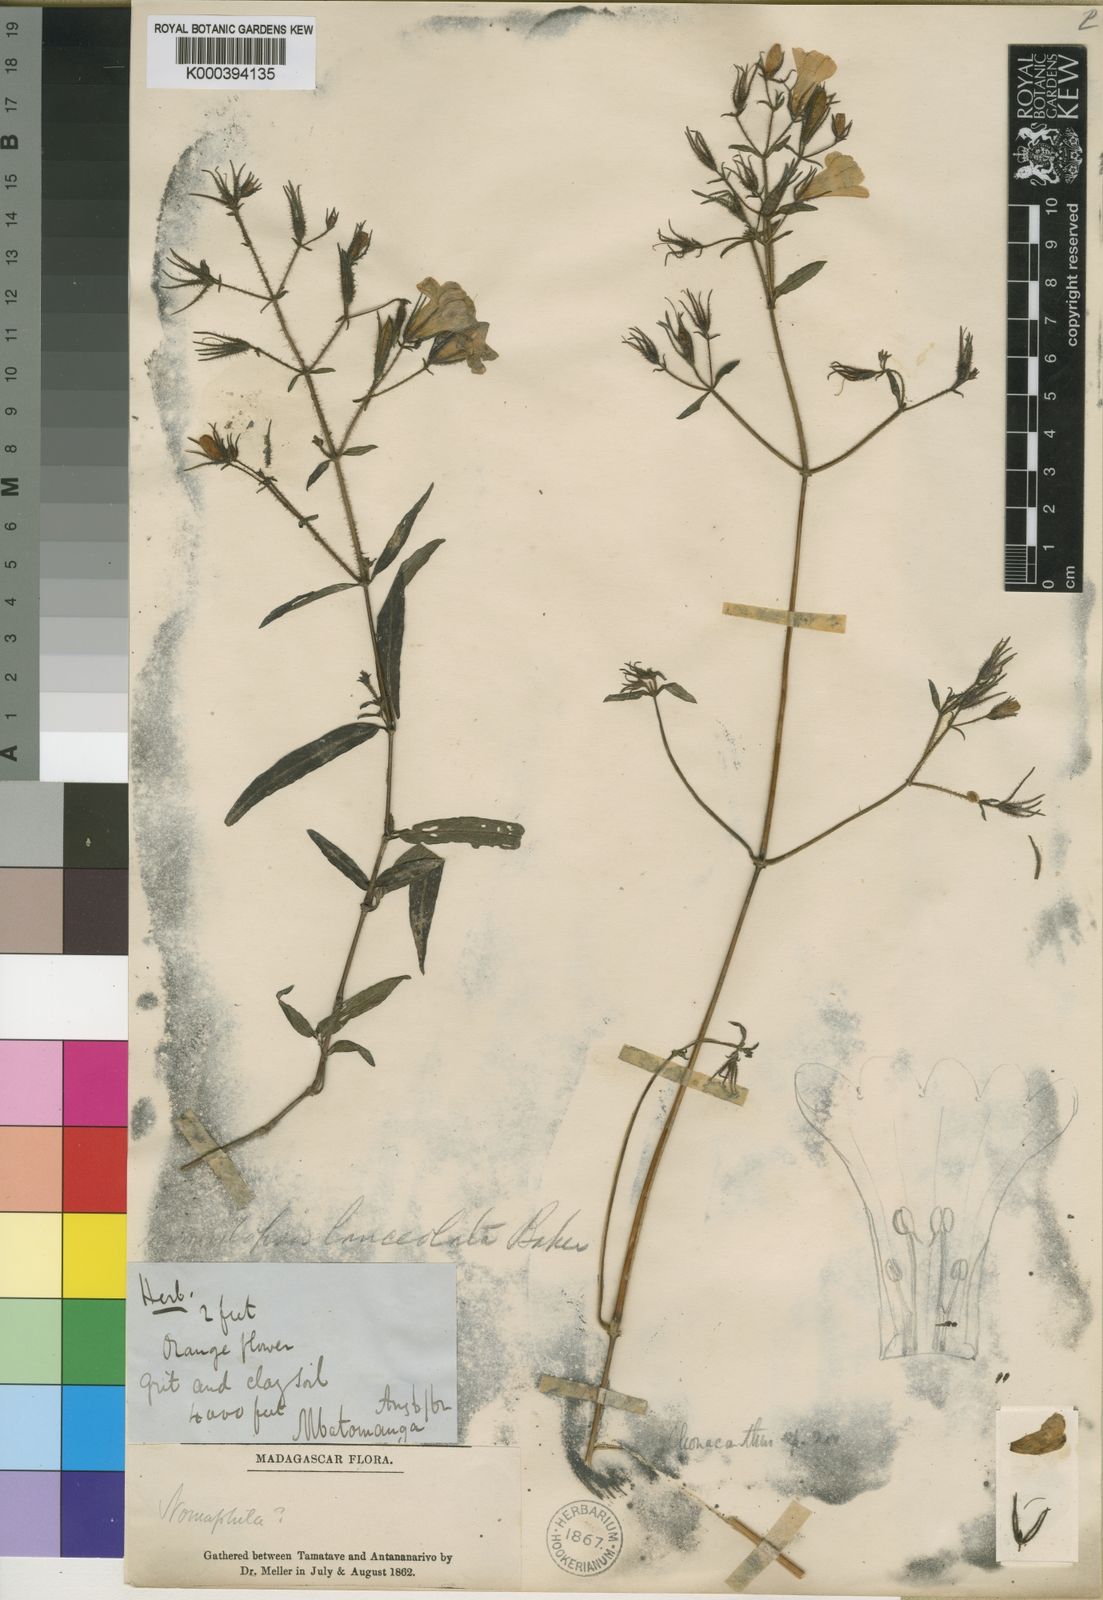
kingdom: Plantae
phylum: Tracheophyta
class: Magnoliopsida
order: Lamiales
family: Acanthaceae
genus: Mimulopsis
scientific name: Mimulopsis
